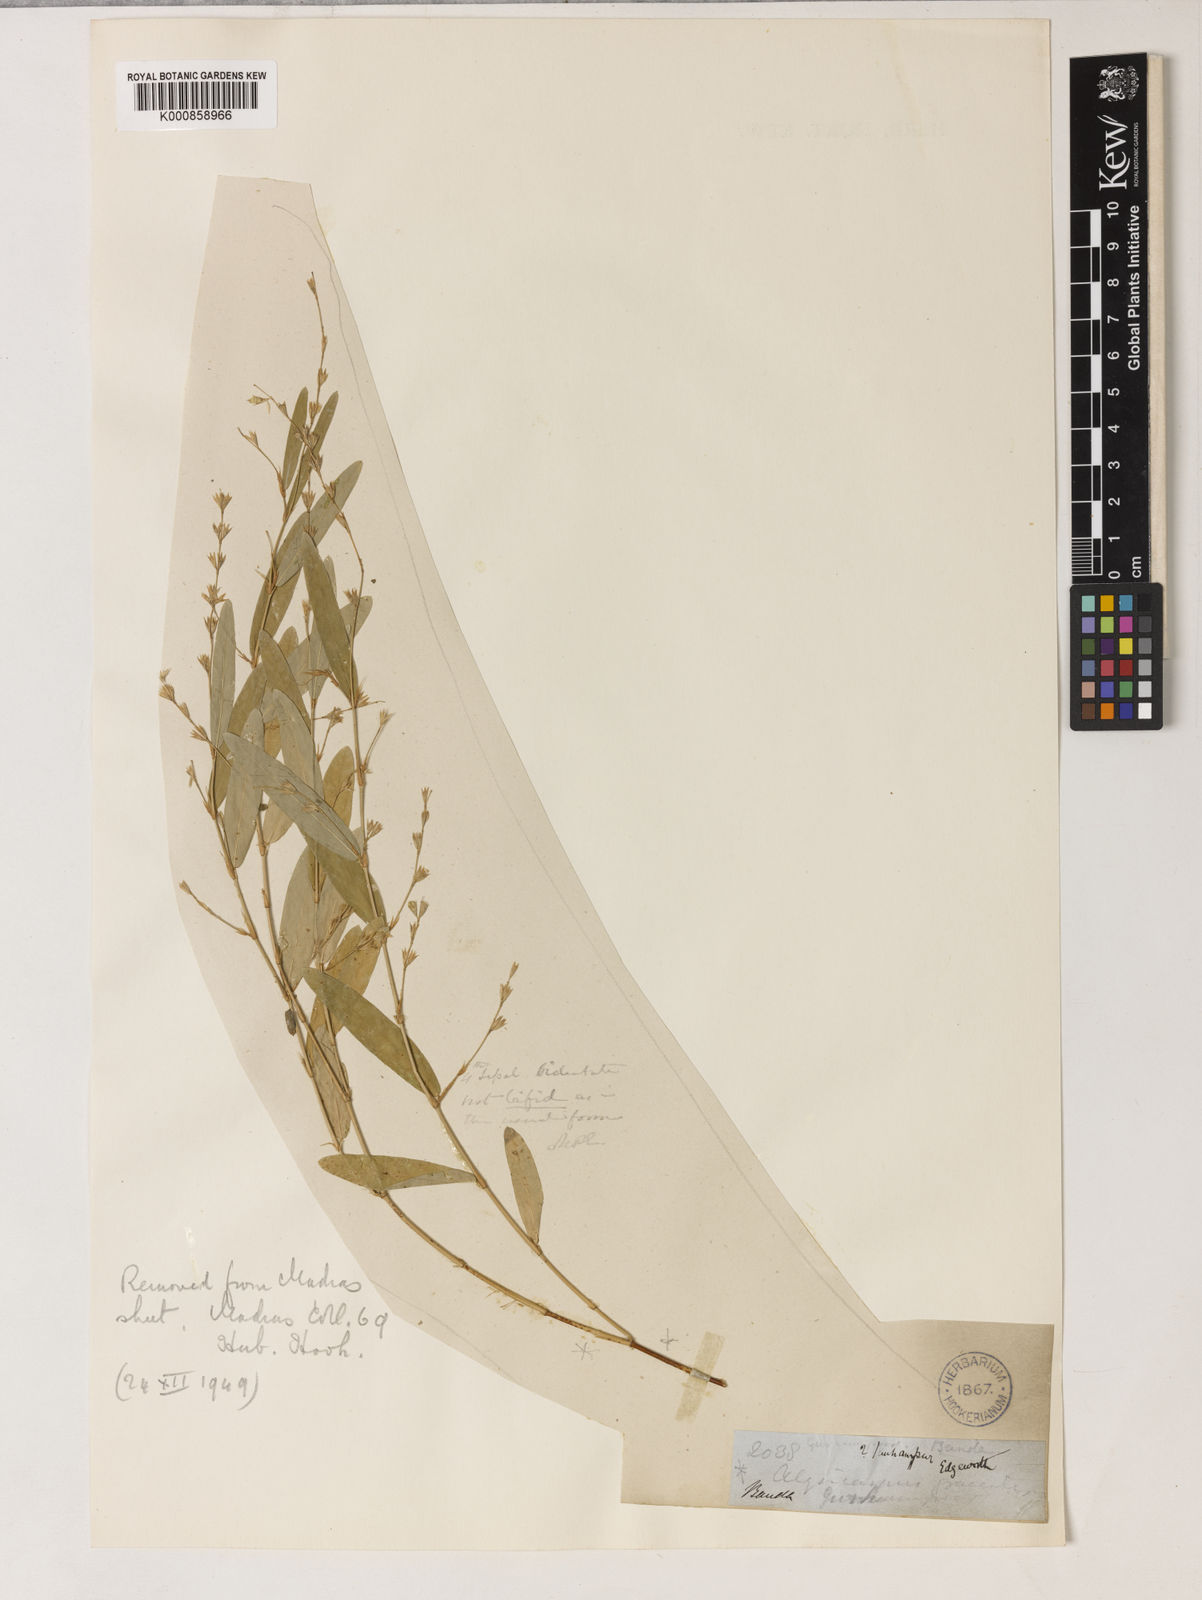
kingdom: Plantae
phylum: Tracheophyta
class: Magnoliopsida
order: Fabales
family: Fabaceae
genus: Alysicarpus
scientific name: Alysicarpus bupleurifolius
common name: Sweet alys
